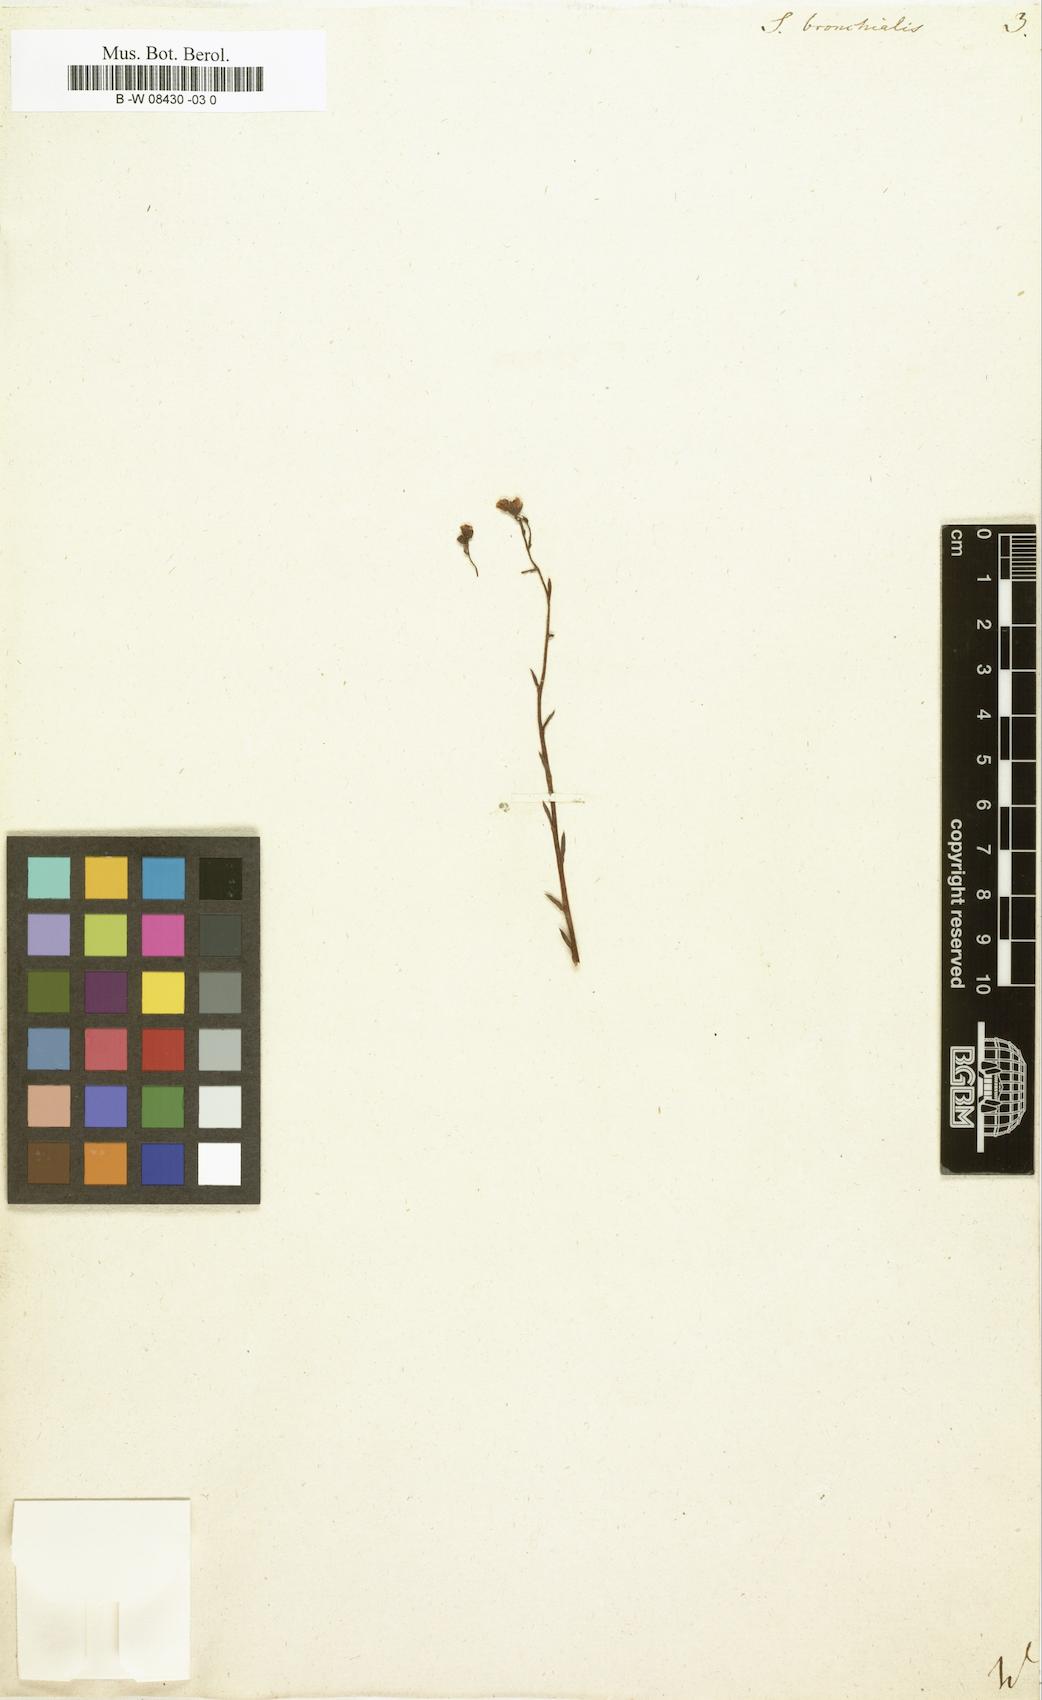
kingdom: Plantae
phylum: Tracheophyta
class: Magnoliopsida
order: Saxifragales
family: Saxifragaceae
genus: Saxifraga
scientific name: Saxifraga bronchialis
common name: Matted saxifrage
